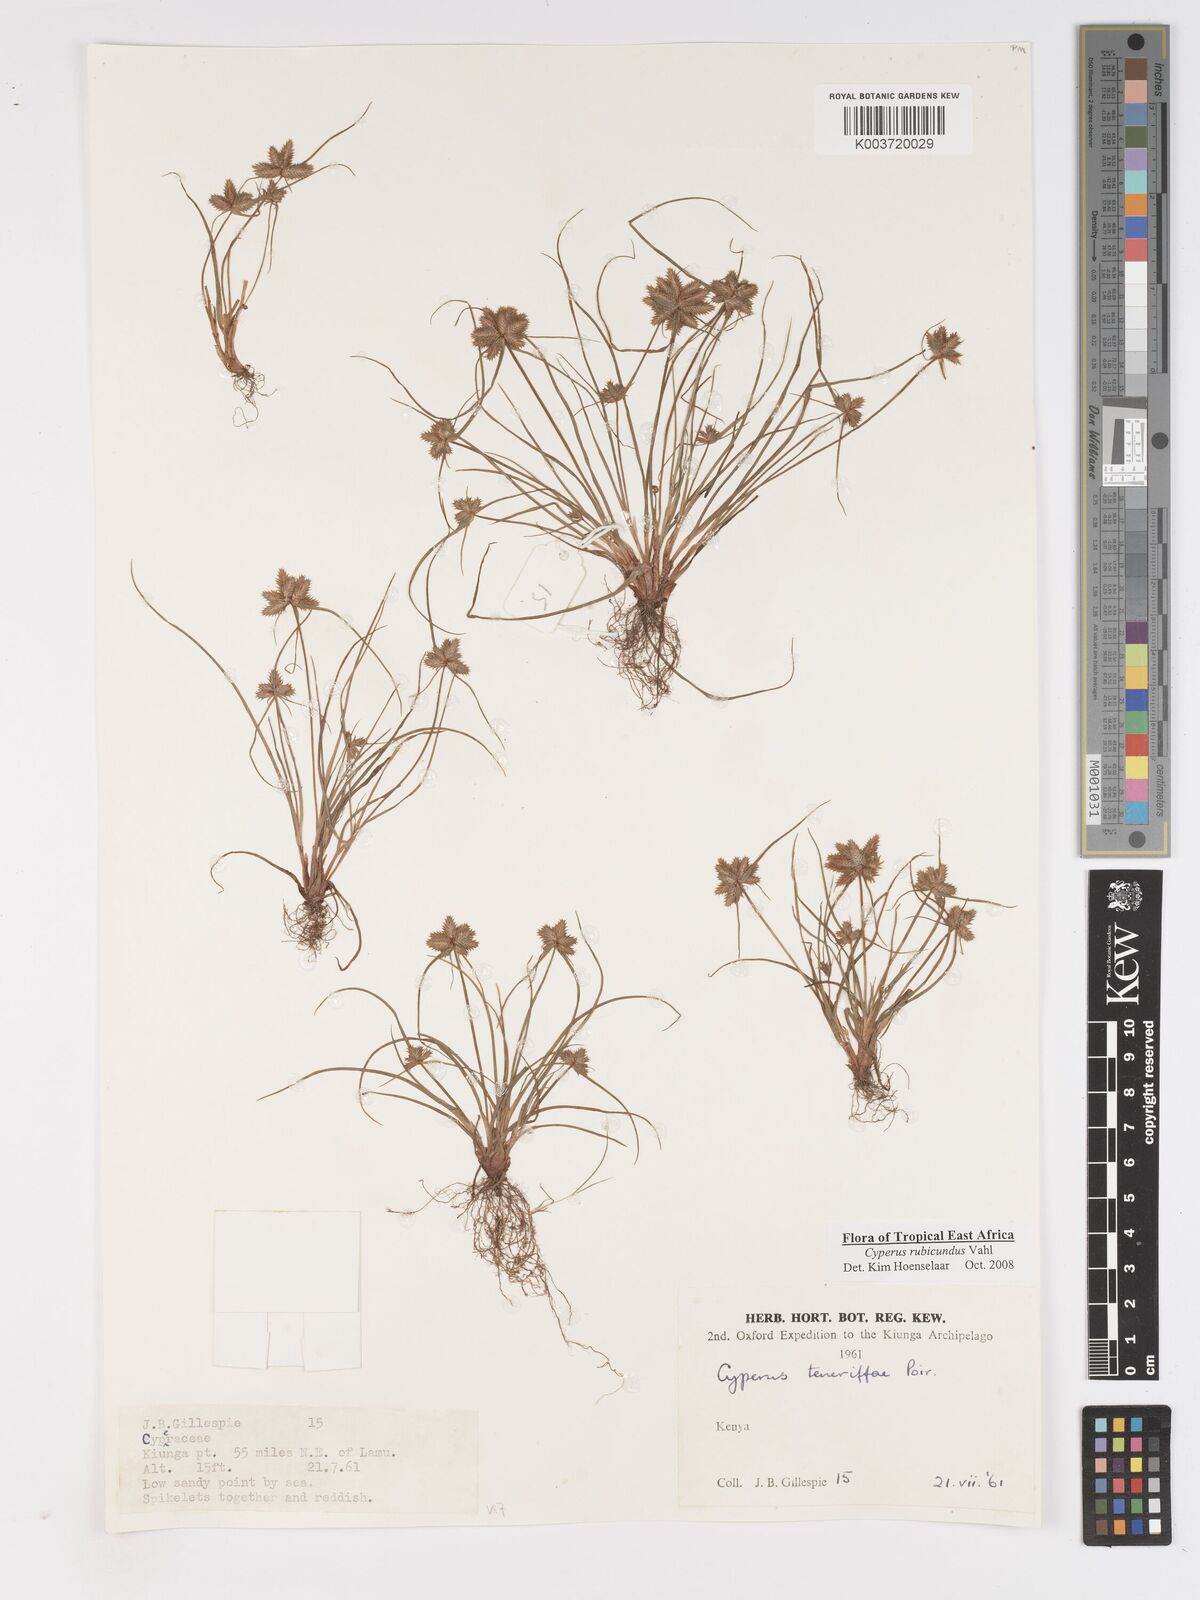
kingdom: Plantae
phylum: Tracheophyta
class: Liliopsida
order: Poales
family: Cyperaceae
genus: Cyperus
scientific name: Cyperus rubicundus
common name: Coco-grass
